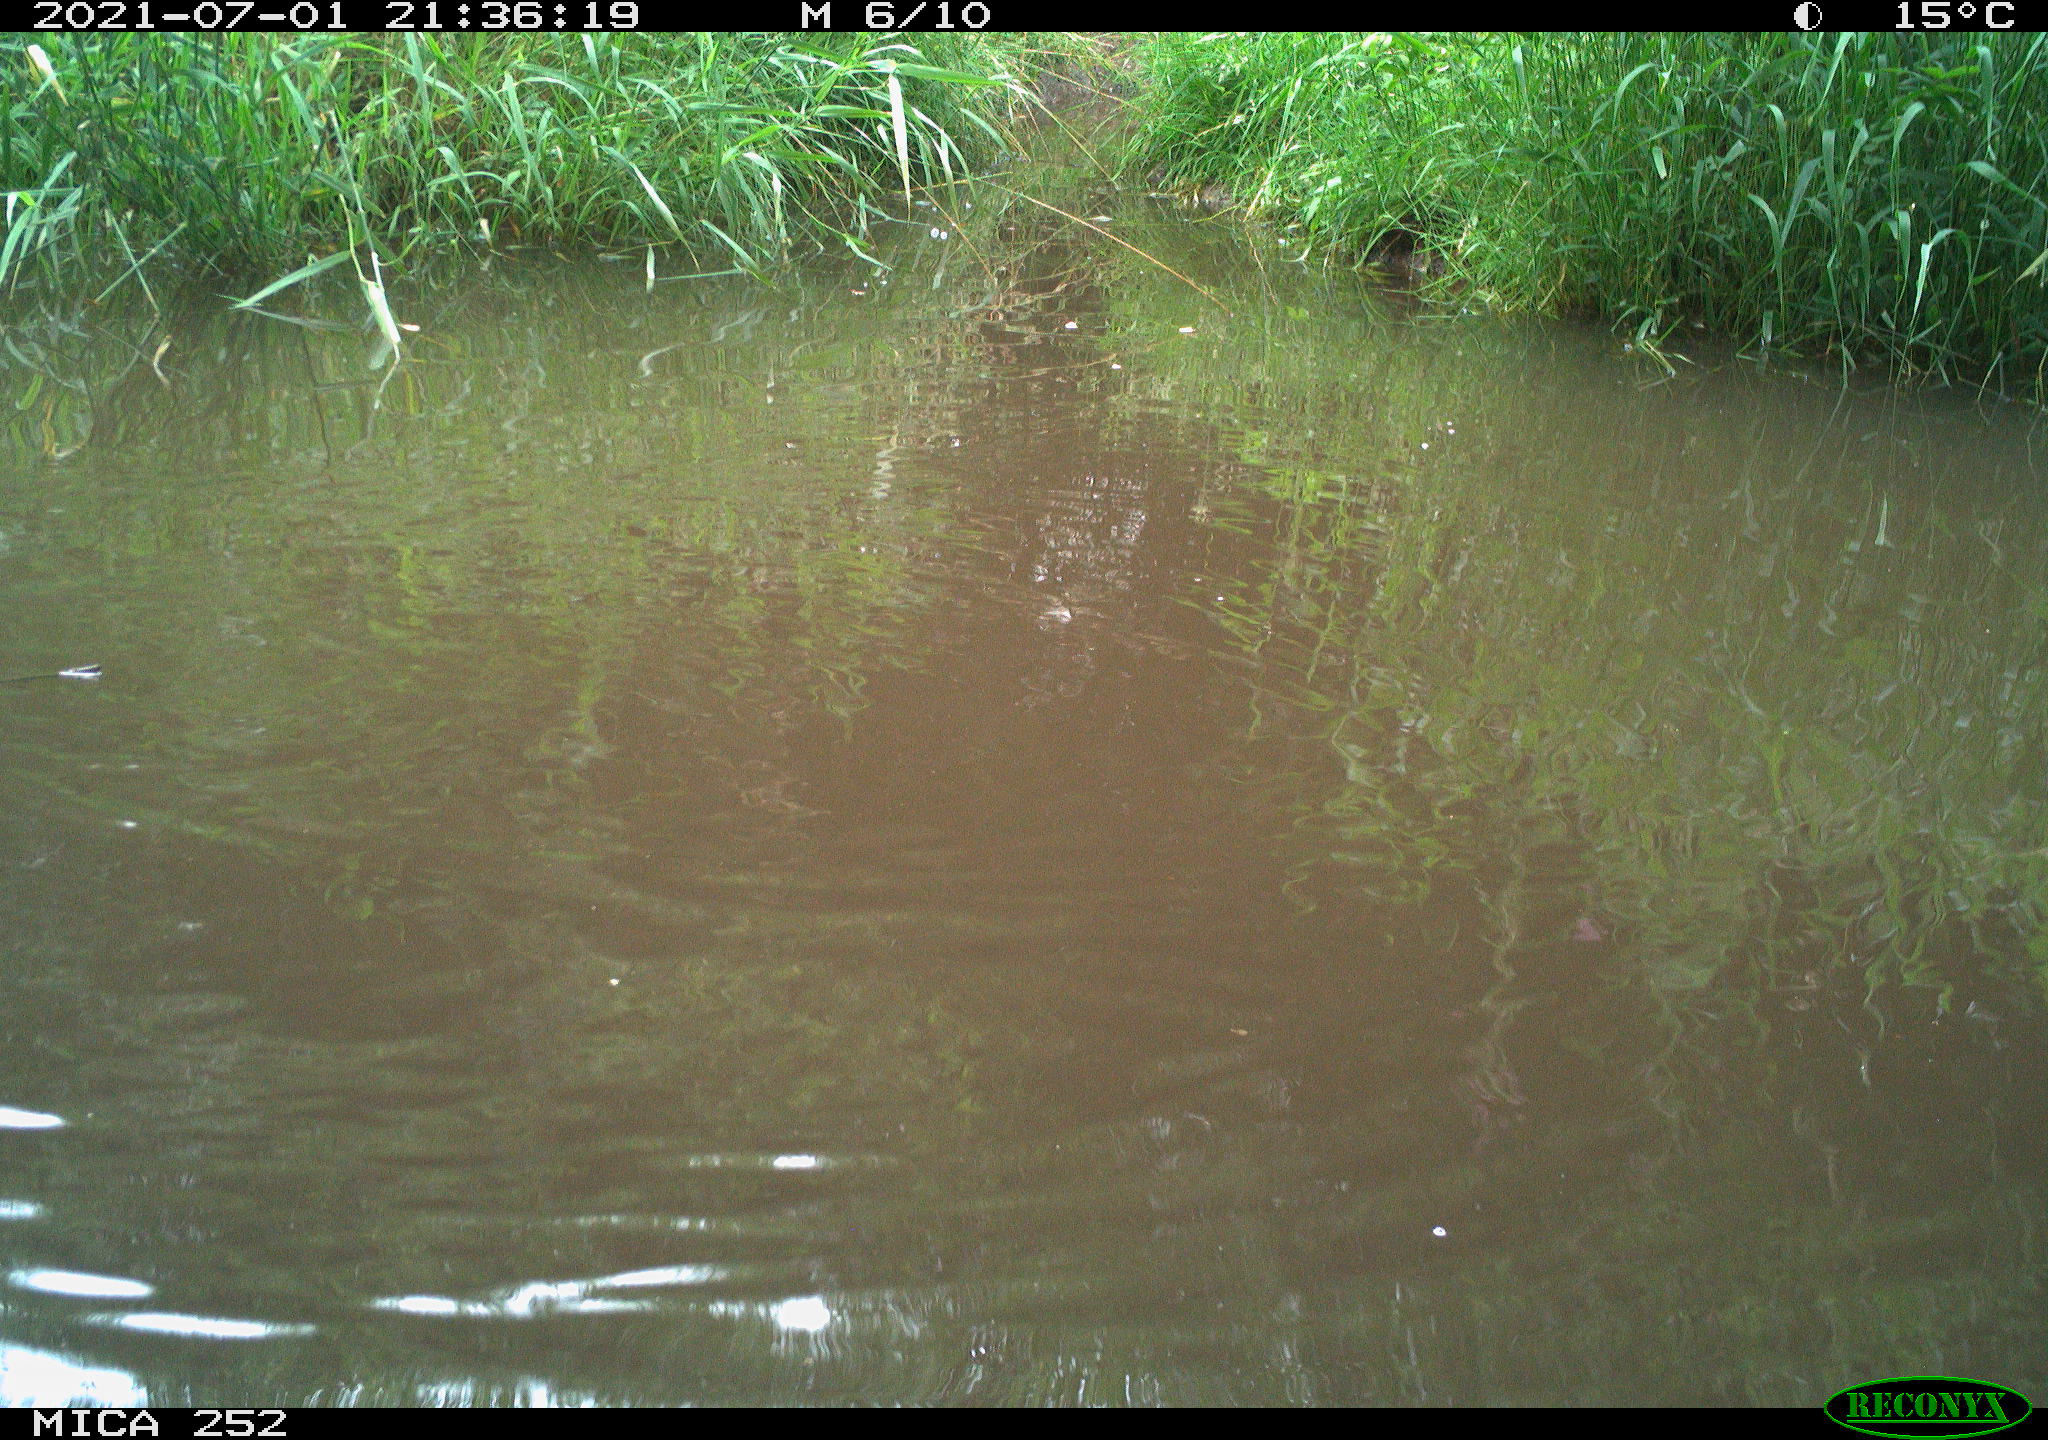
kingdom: Animalia
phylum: Chordata
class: Aves
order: Anseriformes
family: Anatidae
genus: Anas
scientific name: Anas
